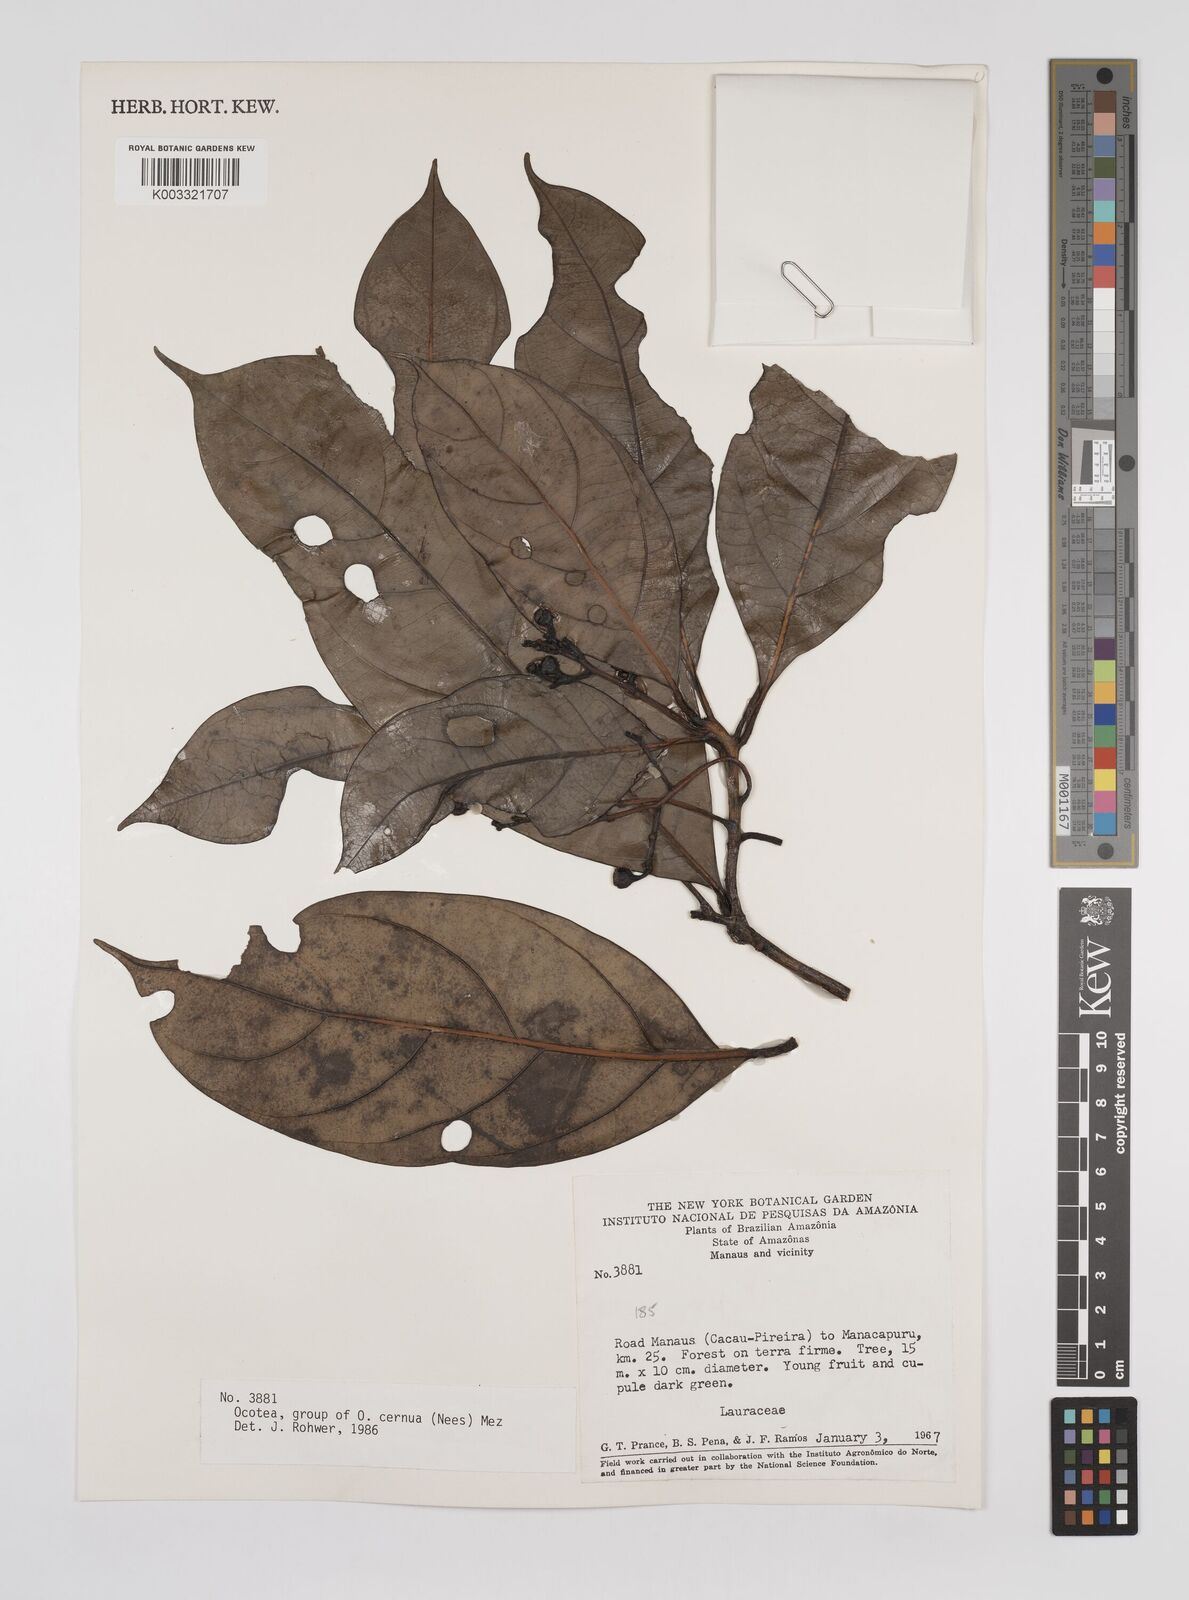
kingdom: Plantae
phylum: Tracheophyta
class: Magnoliopsida
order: Laurales
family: Lauraceae
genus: Ocotea
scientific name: Ocotea leptobotra
